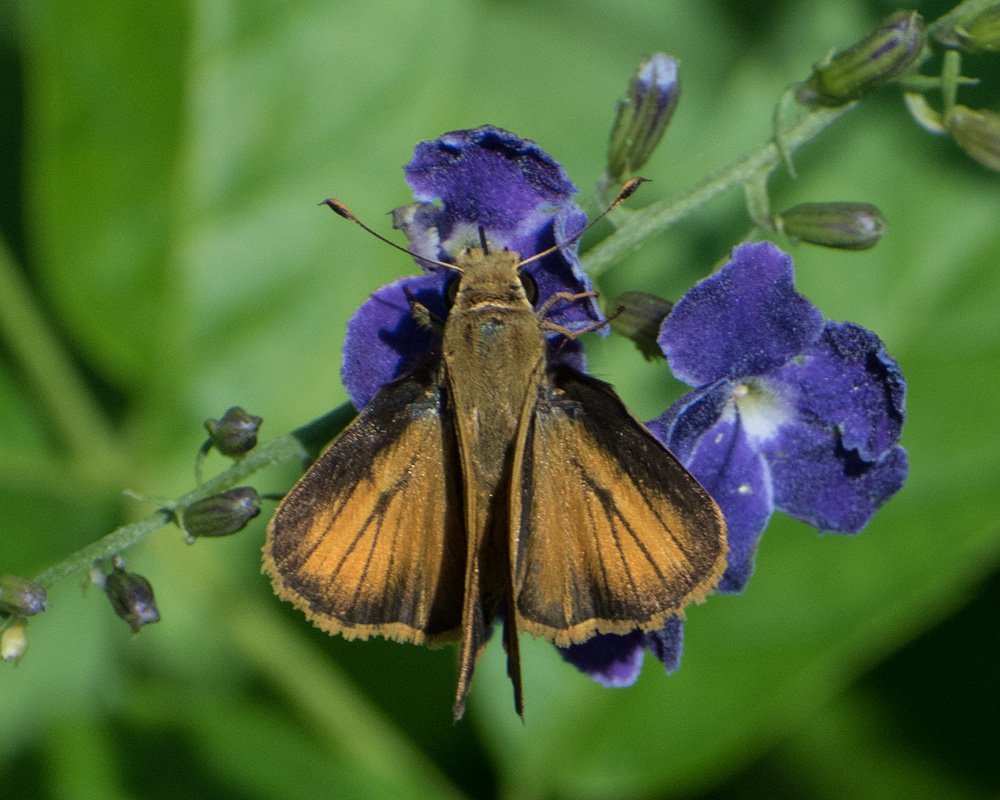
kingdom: Animalia
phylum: Arthropoda
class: Insecta
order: Lepidoptera
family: Hesperiidae
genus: Polites
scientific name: Polites vibex
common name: Whirlabout
